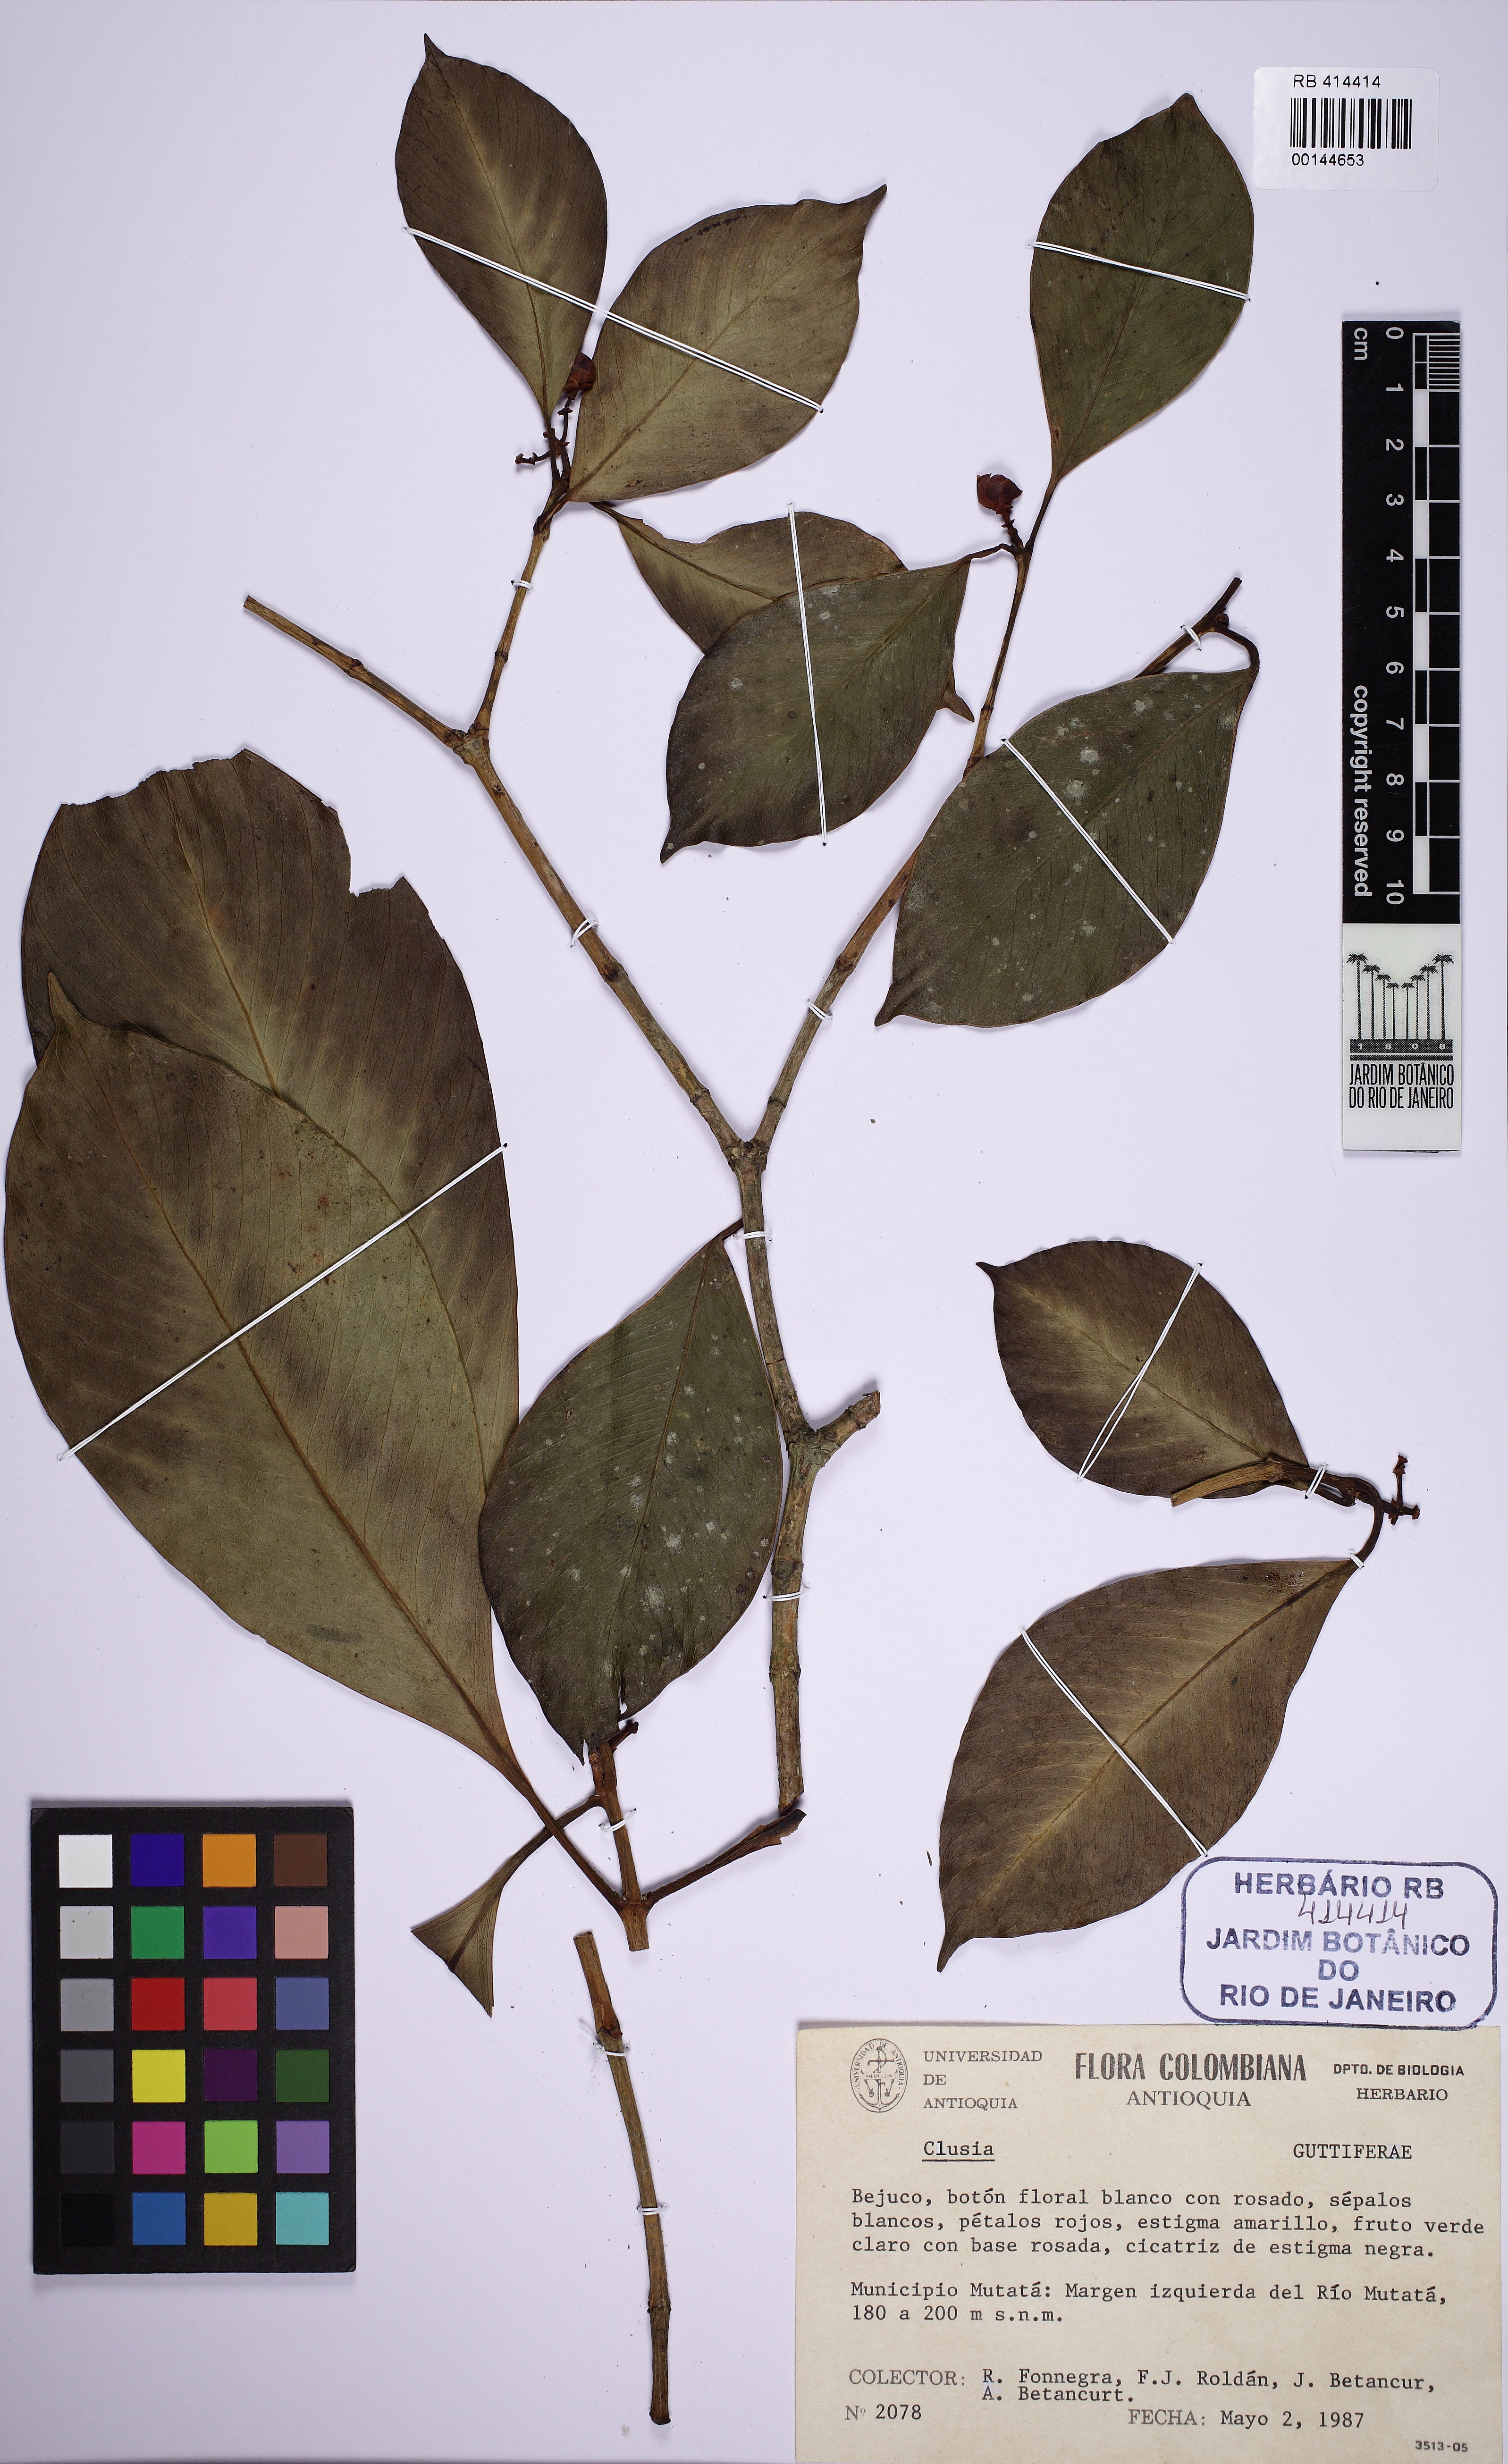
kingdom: Plantae
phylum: Tracheophyta
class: Magnoliopsida
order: Malpighiales
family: Clusiaceae
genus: Clusia
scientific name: Clusia
